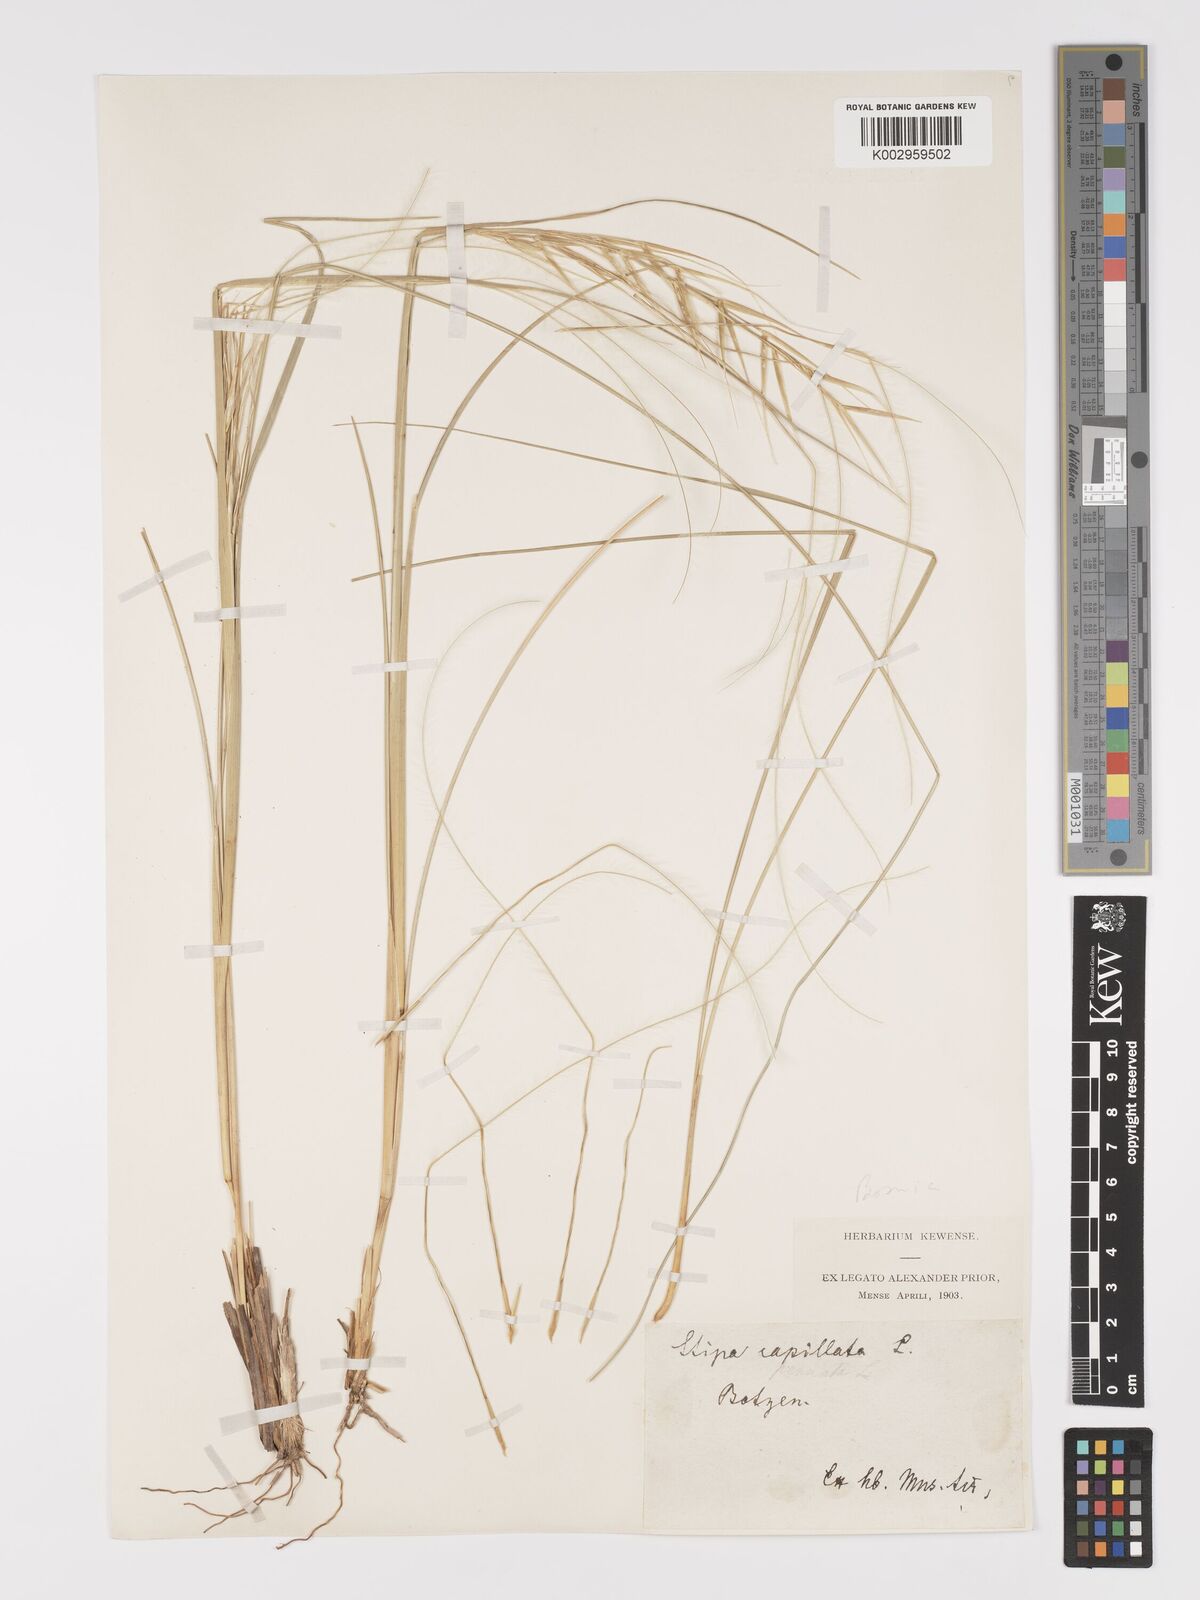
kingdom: Plantae
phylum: Tracheophyta
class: Liliopsida
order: Poales
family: Poaceae
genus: Stipa
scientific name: Stipa capillata
